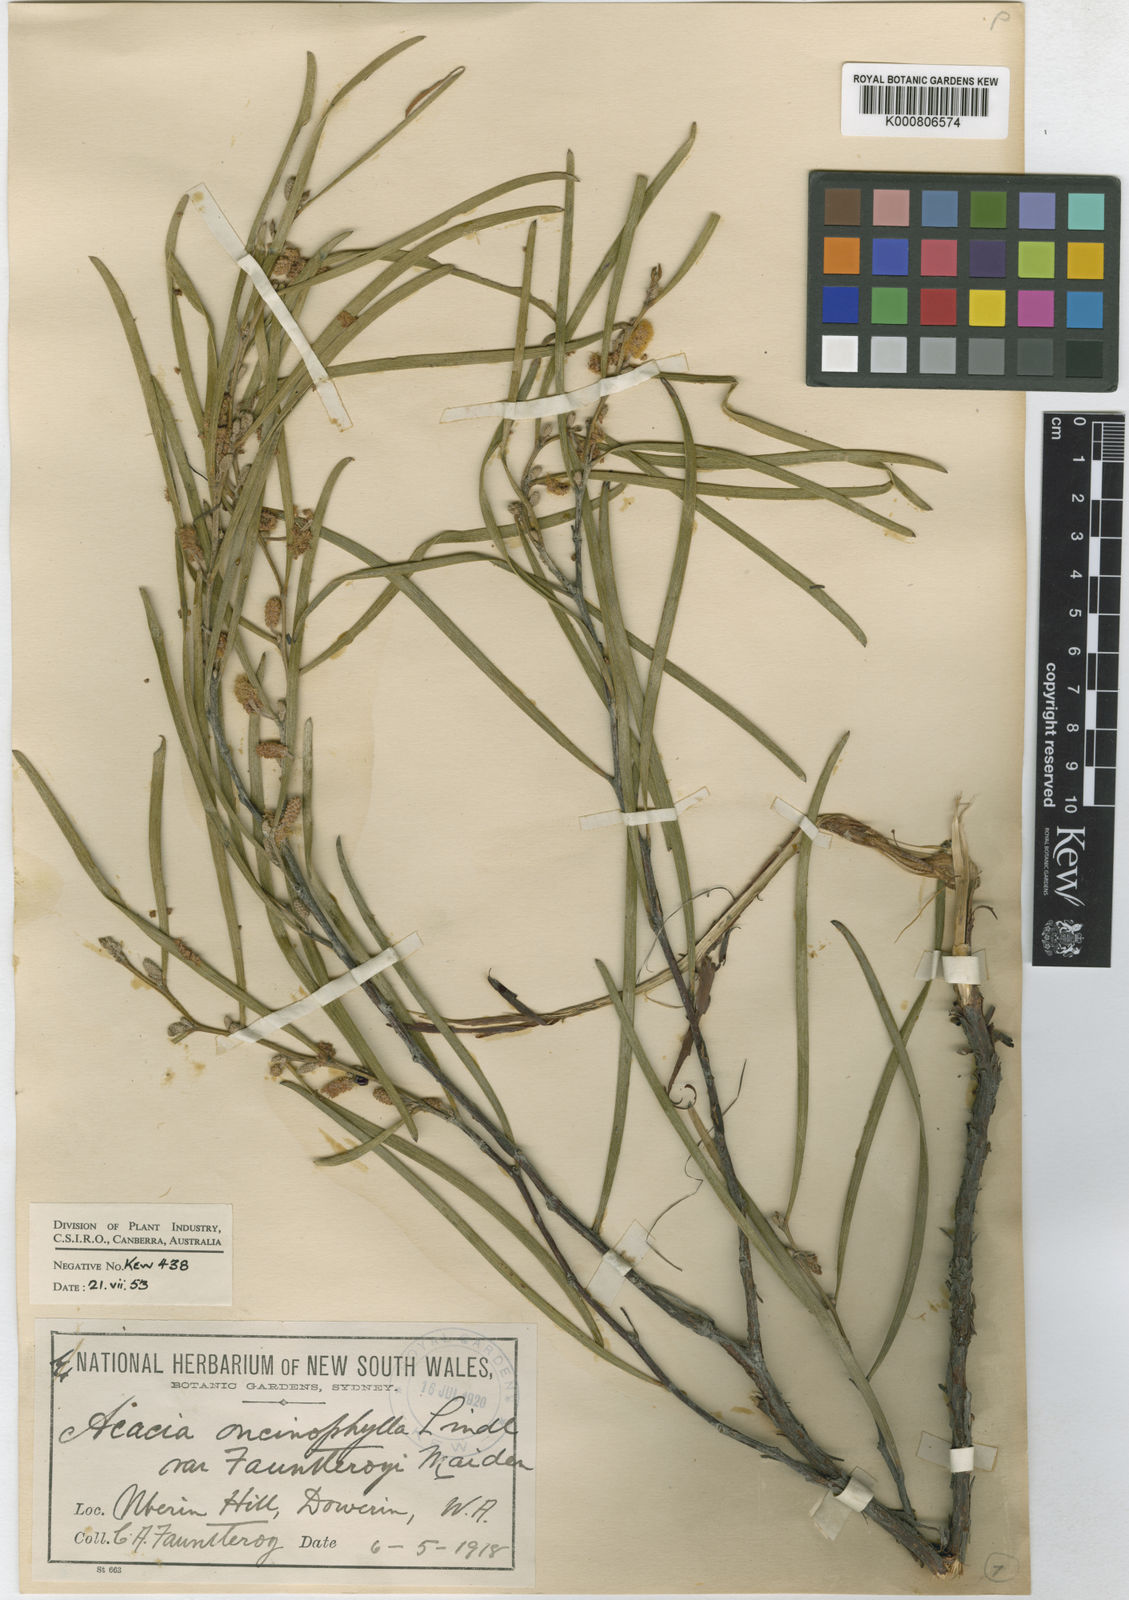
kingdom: Plantae
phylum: Tracheophyta
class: Magnoliopsida
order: Fabales
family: Fabaceae
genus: Acacia
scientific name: Acacia fauntleroyi
